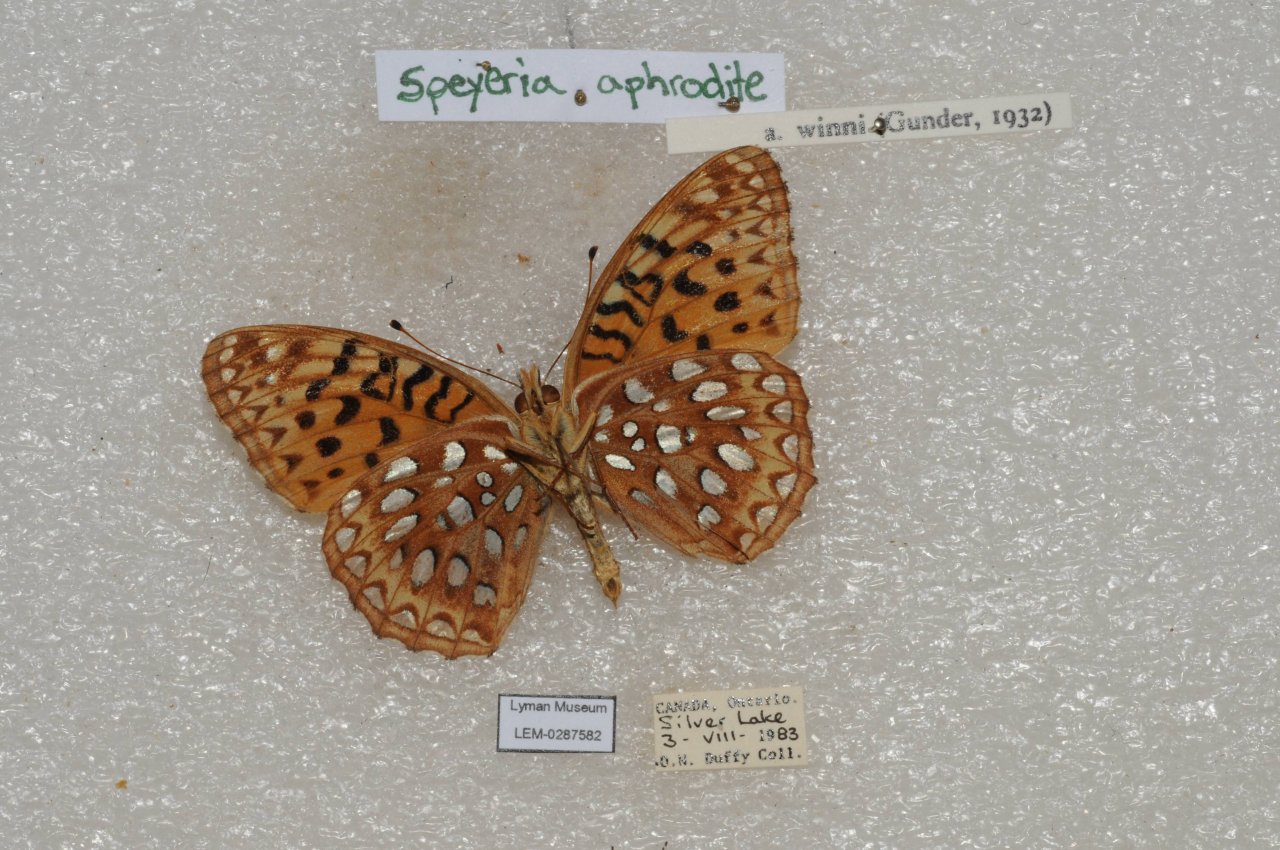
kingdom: Animalia
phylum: Arthropoda
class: Insecta
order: Lepidoptera
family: Nymphalidae
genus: Speyeria
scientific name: Speyeria aphrodite
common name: Aphrodite Fritillary
